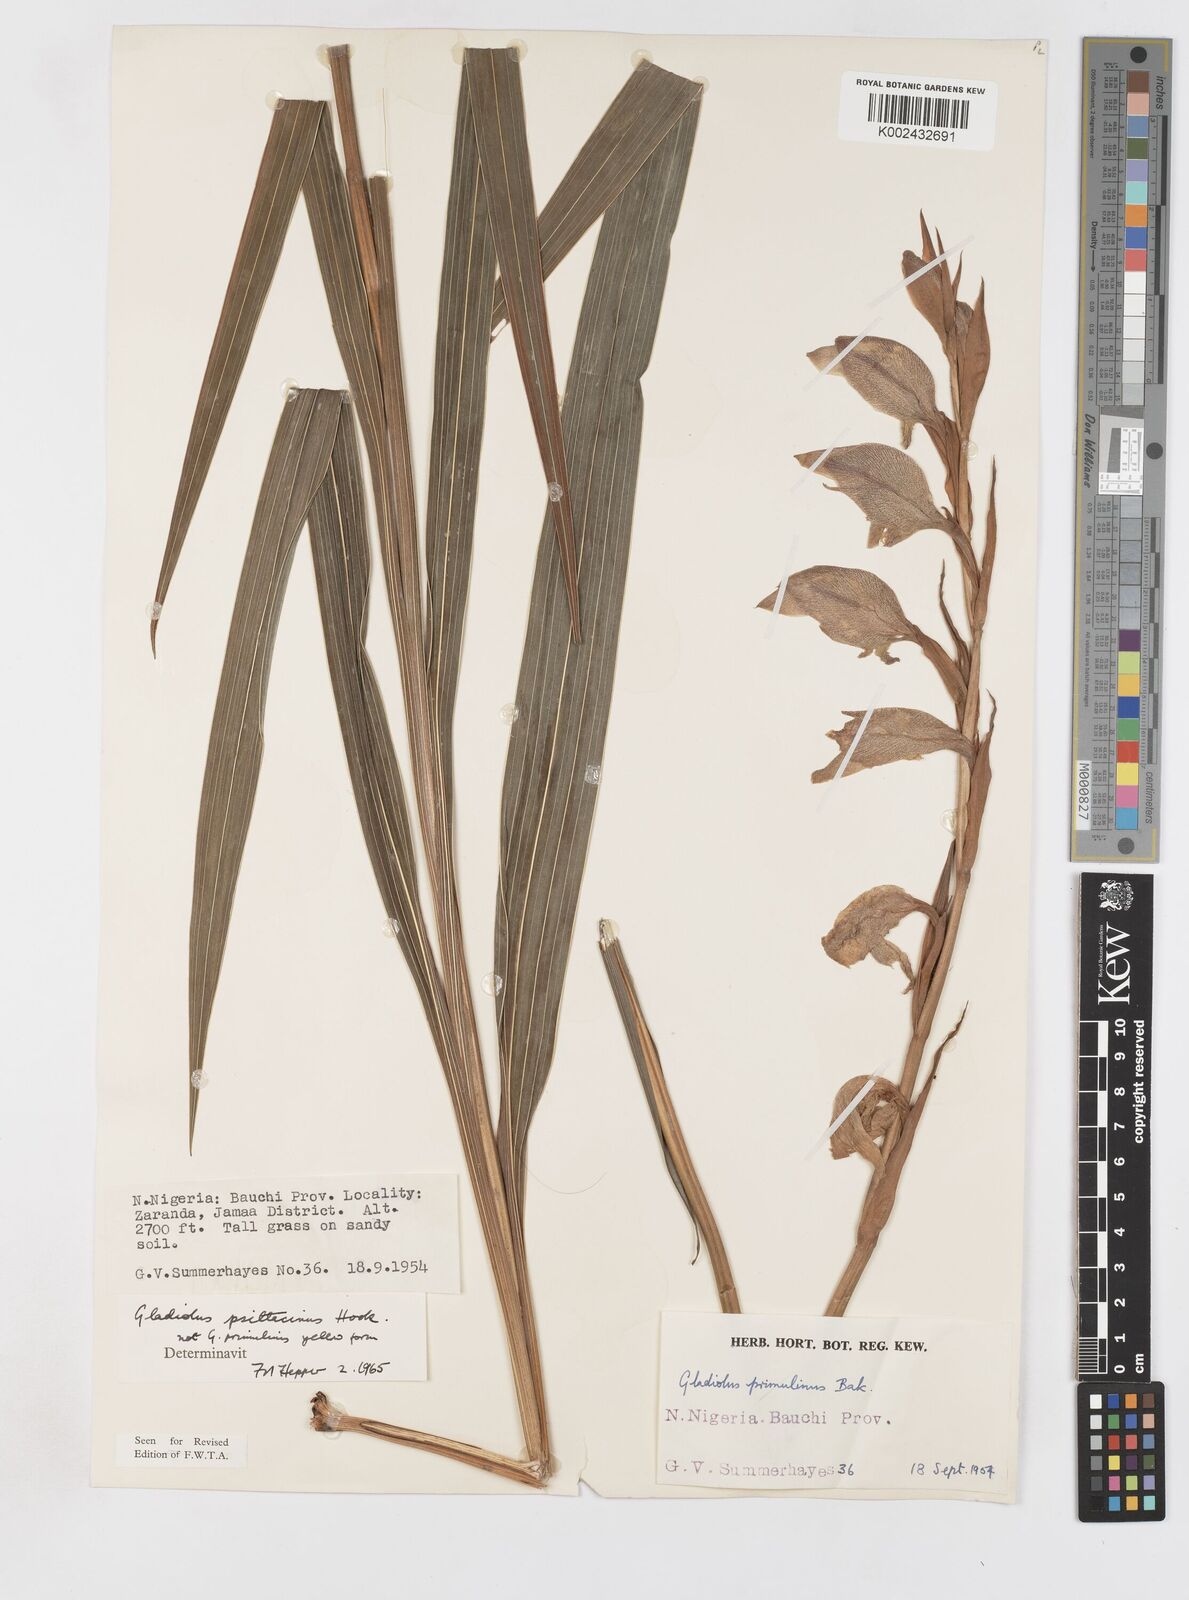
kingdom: Plantae
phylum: Tracheophyta
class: Liliopsida
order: Asparagales
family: Iridaceae
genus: Gladiolus
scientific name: Gladiolus dalenii
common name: Cornflag
